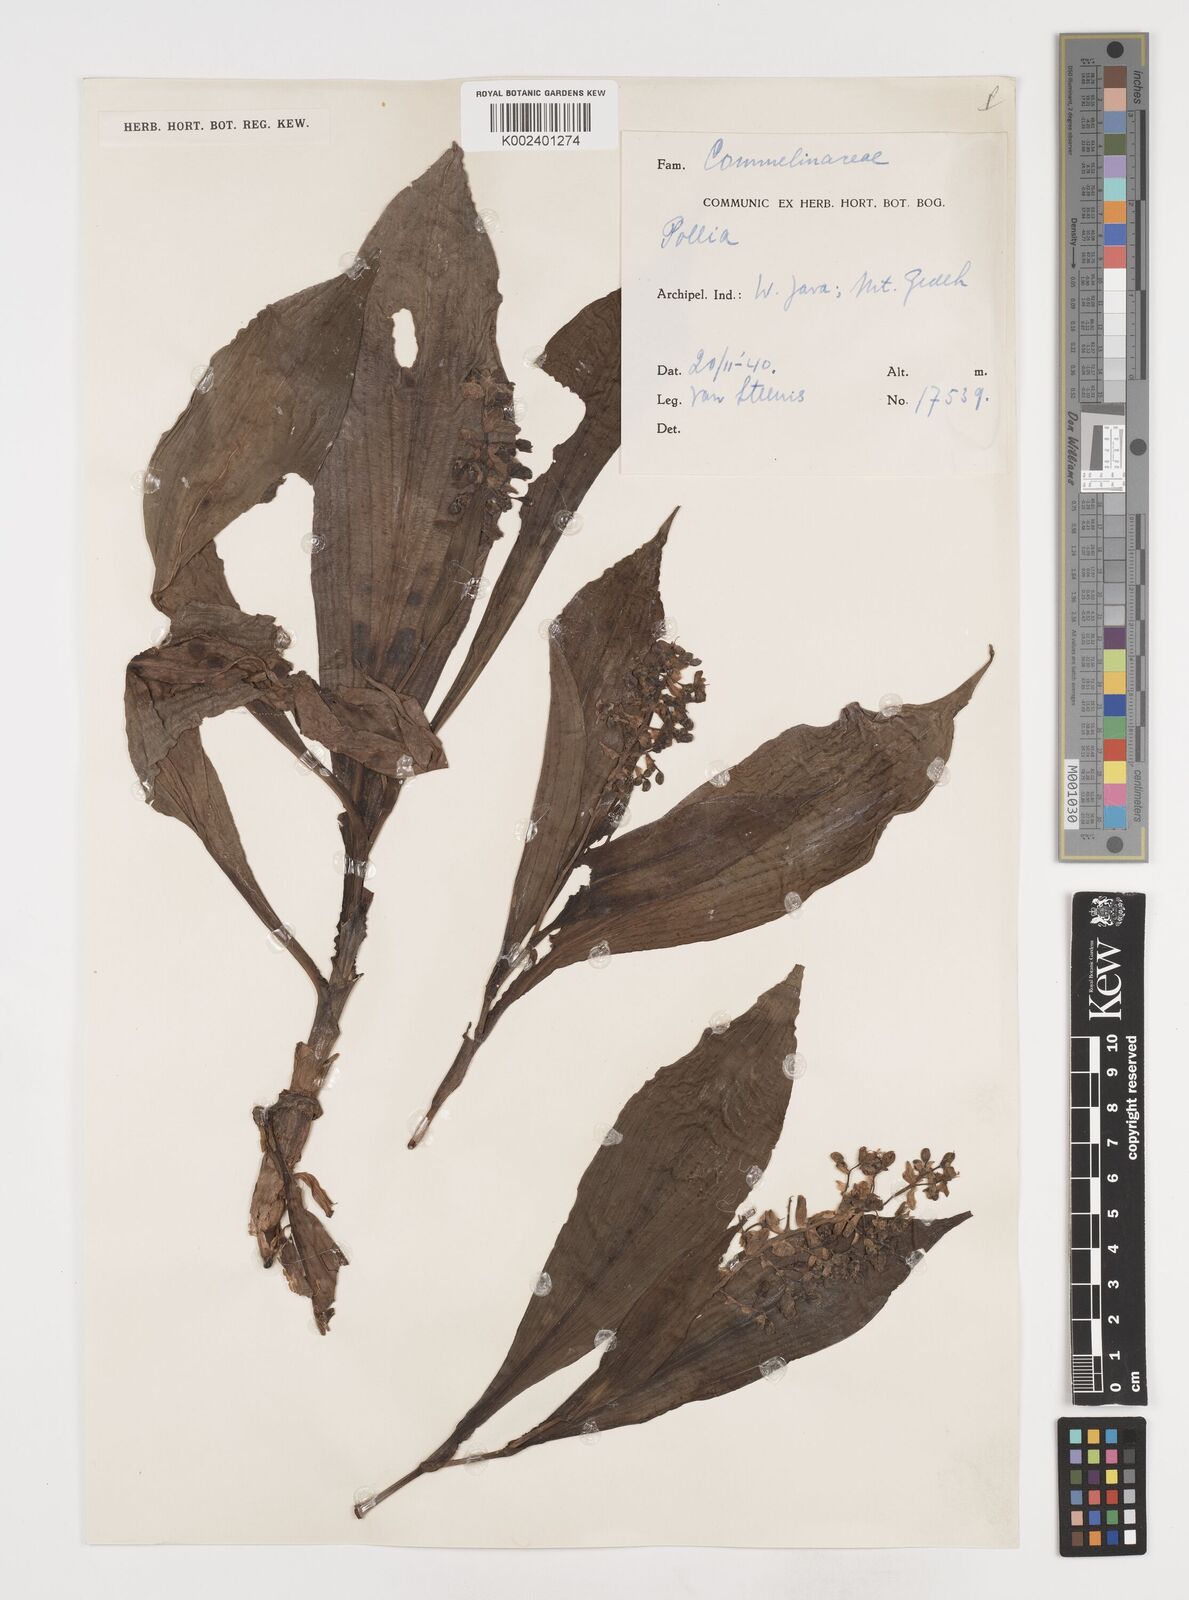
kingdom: Plantae
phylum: Tracheophyta
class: Liliopsida
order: Commelinales
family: Commelinaceae
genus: Pollia
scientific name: Pollia secundiflora
